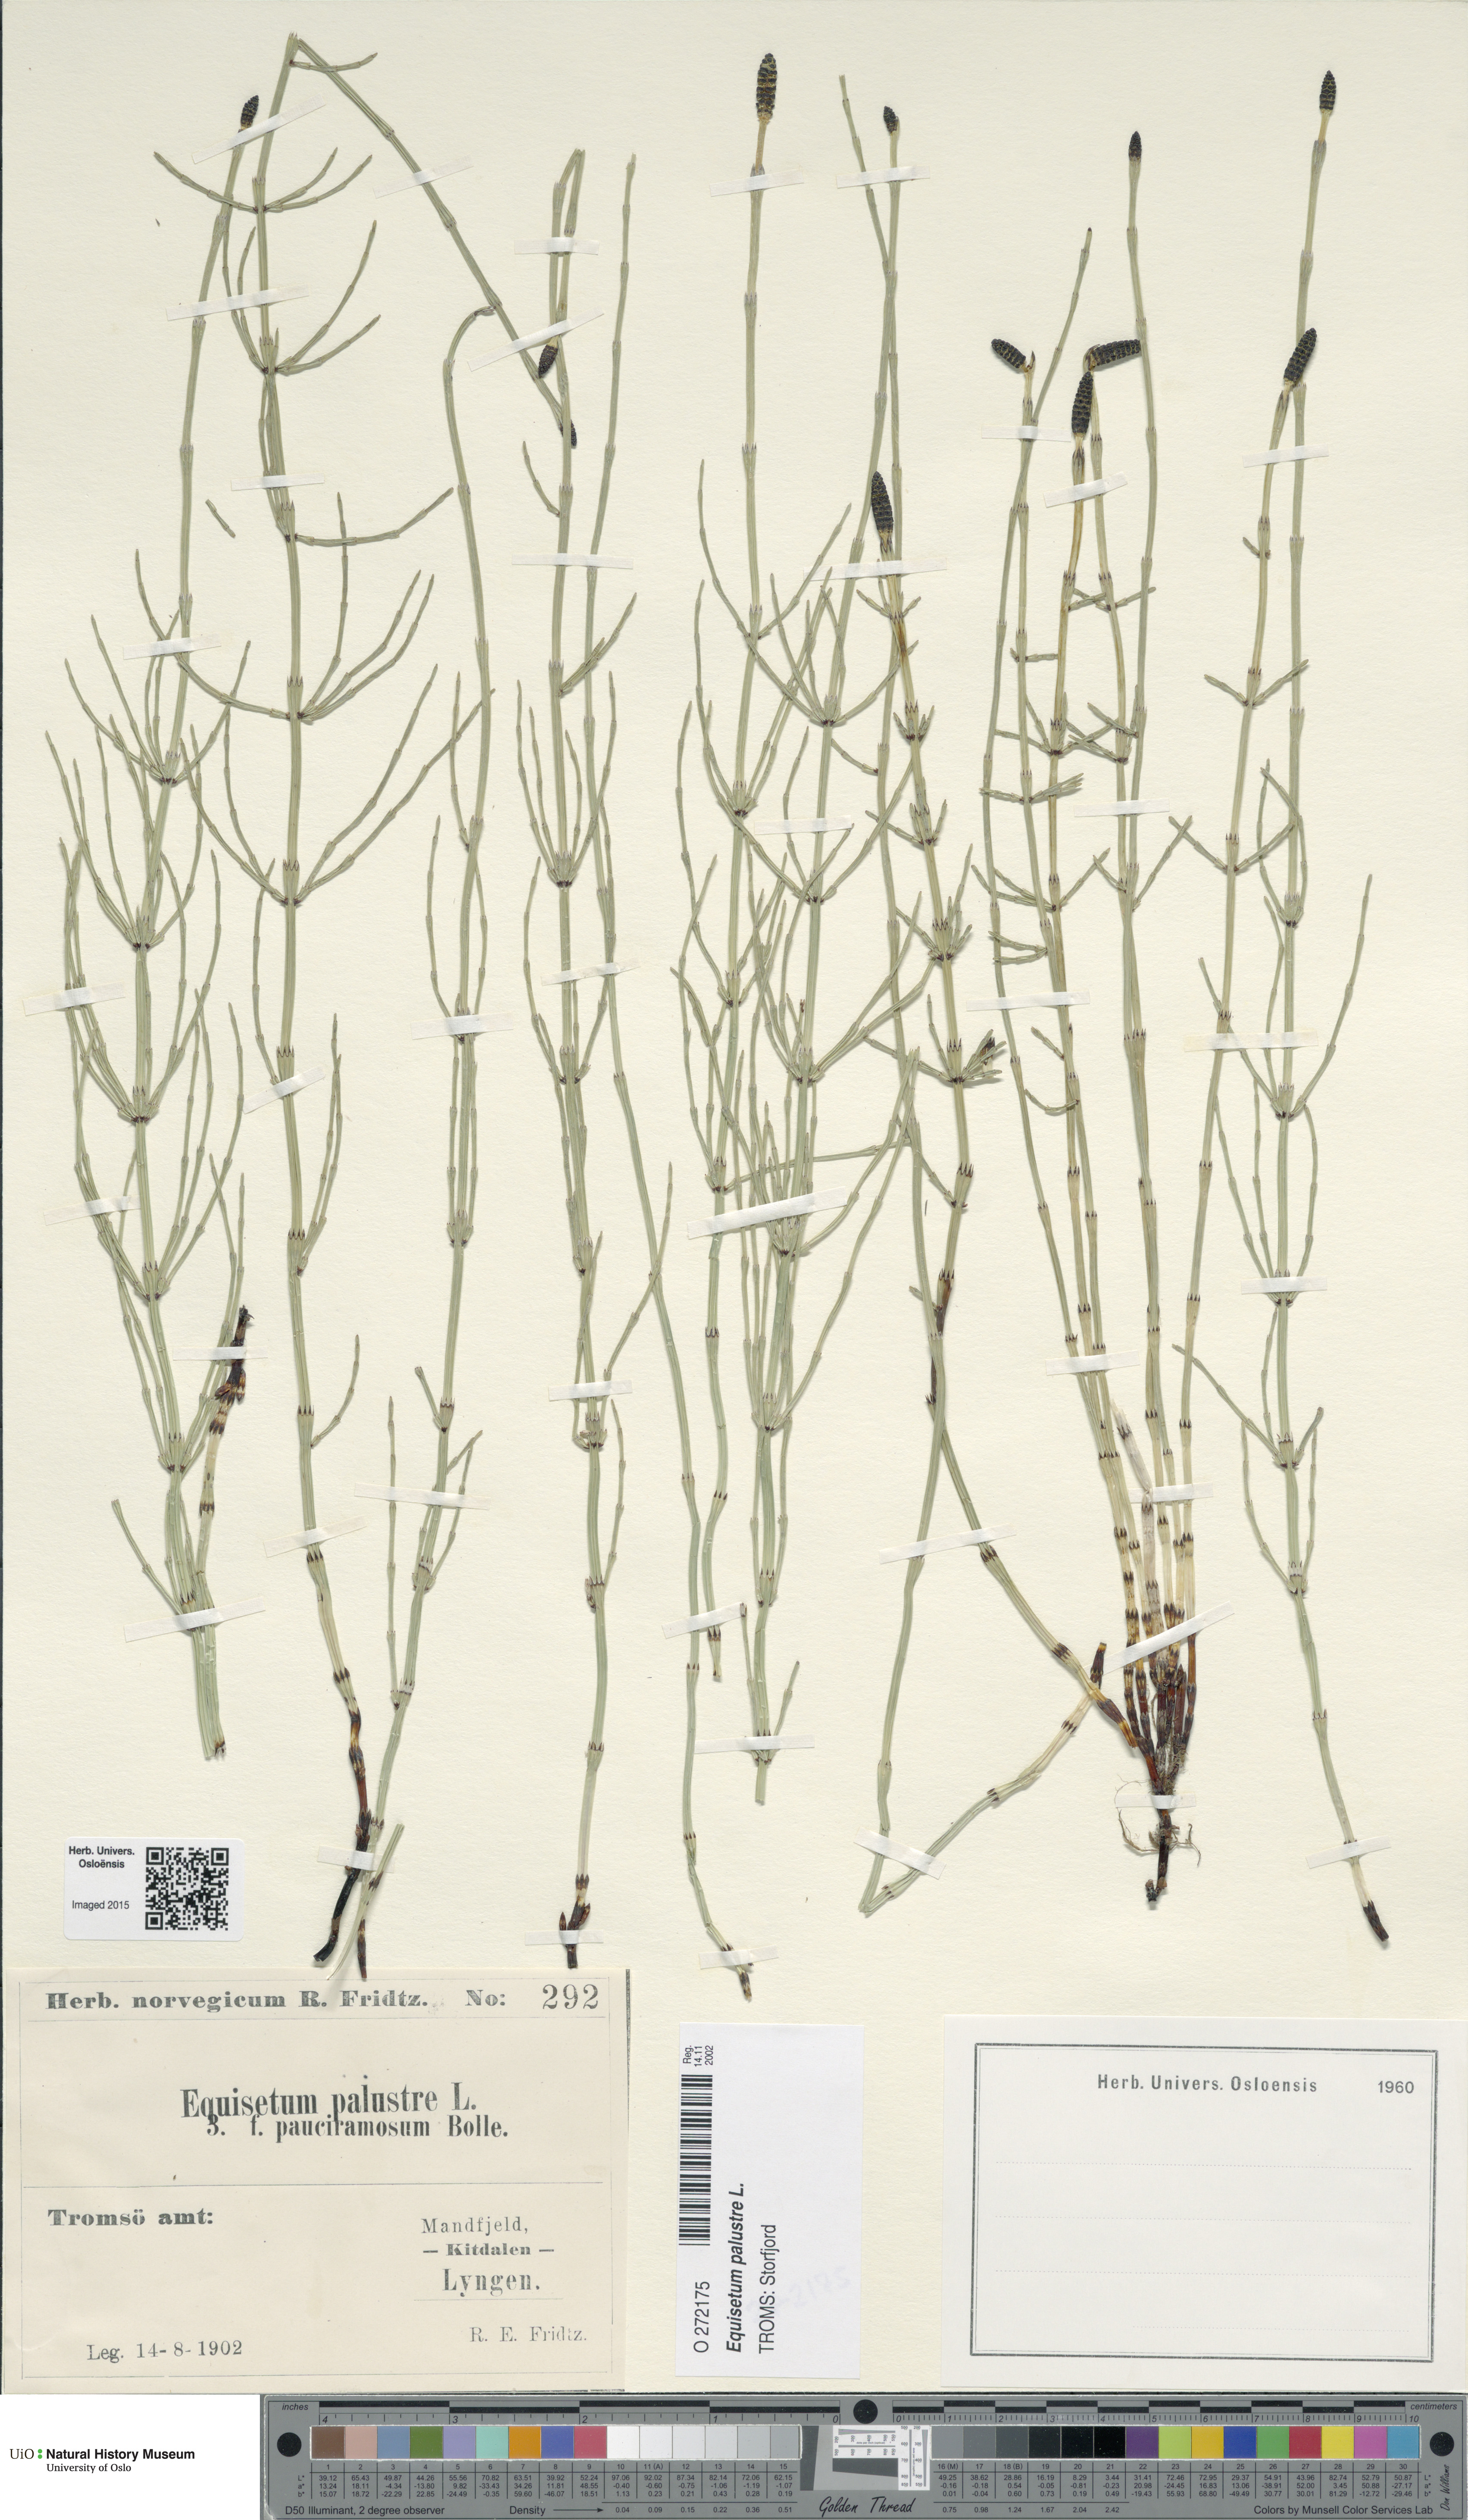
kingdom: Plantae
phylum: Tracheophyta
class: Polypodiopsida
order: Equisetales
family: Equisetaceae
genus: Equisetum
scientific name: Equisetum palustre
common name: Marsh horsetail
